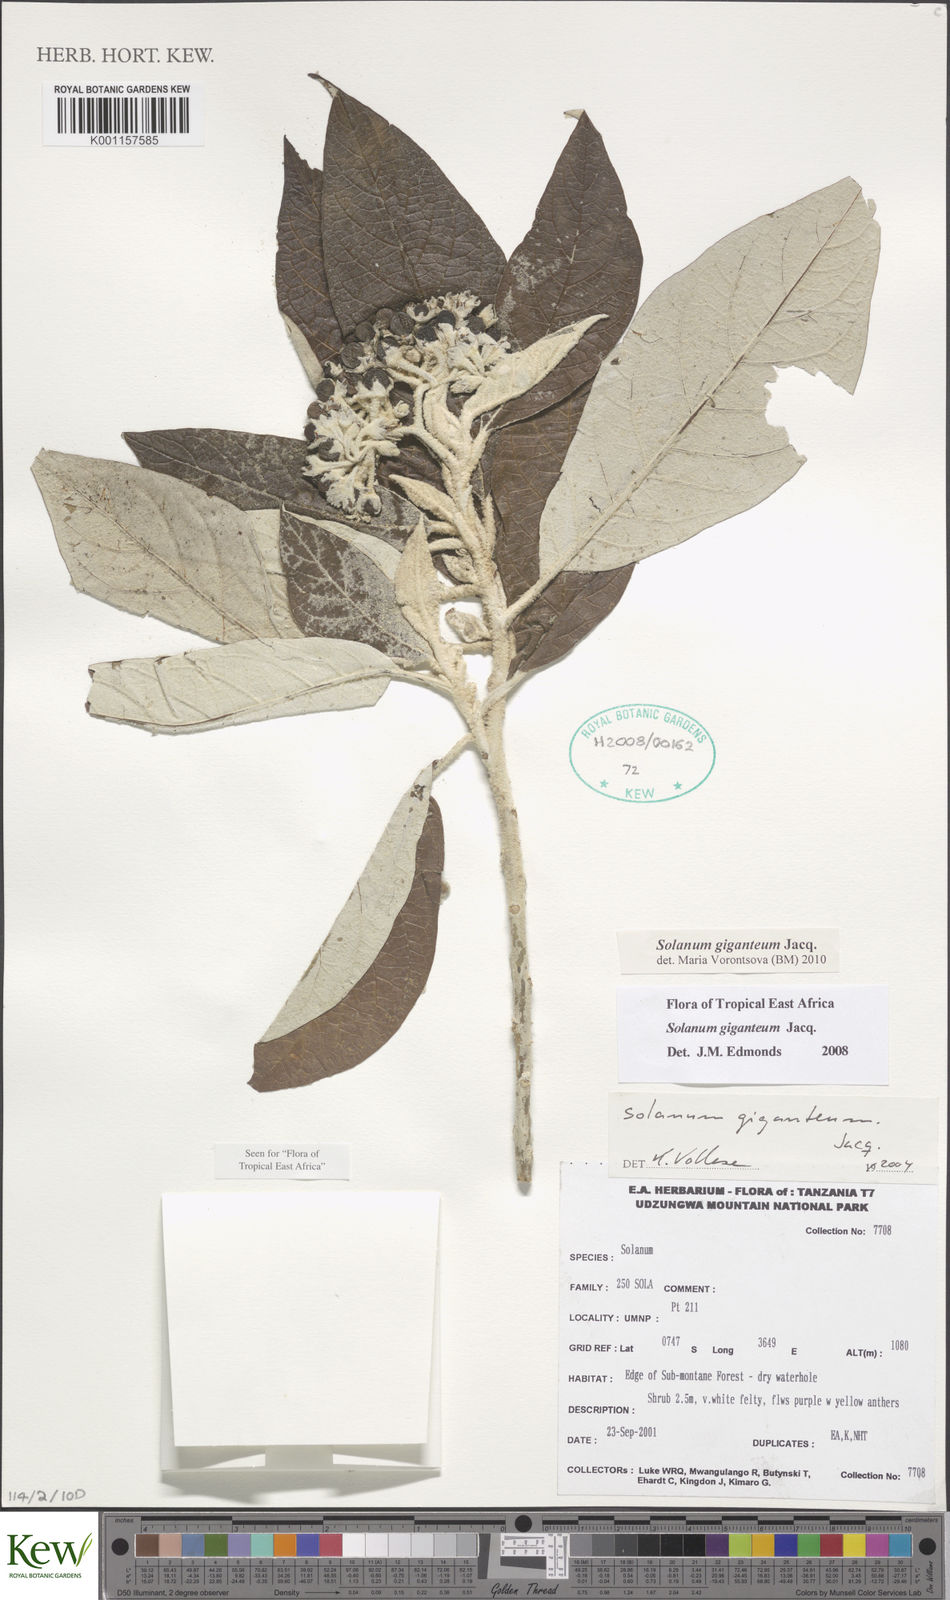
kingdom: Plantae
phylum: Tracheophyta
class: Magnoliopsida
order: Solanales
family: Solanaceae
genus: Solanum
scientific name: Solanum giganteum
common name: Healing-leaf-tree
